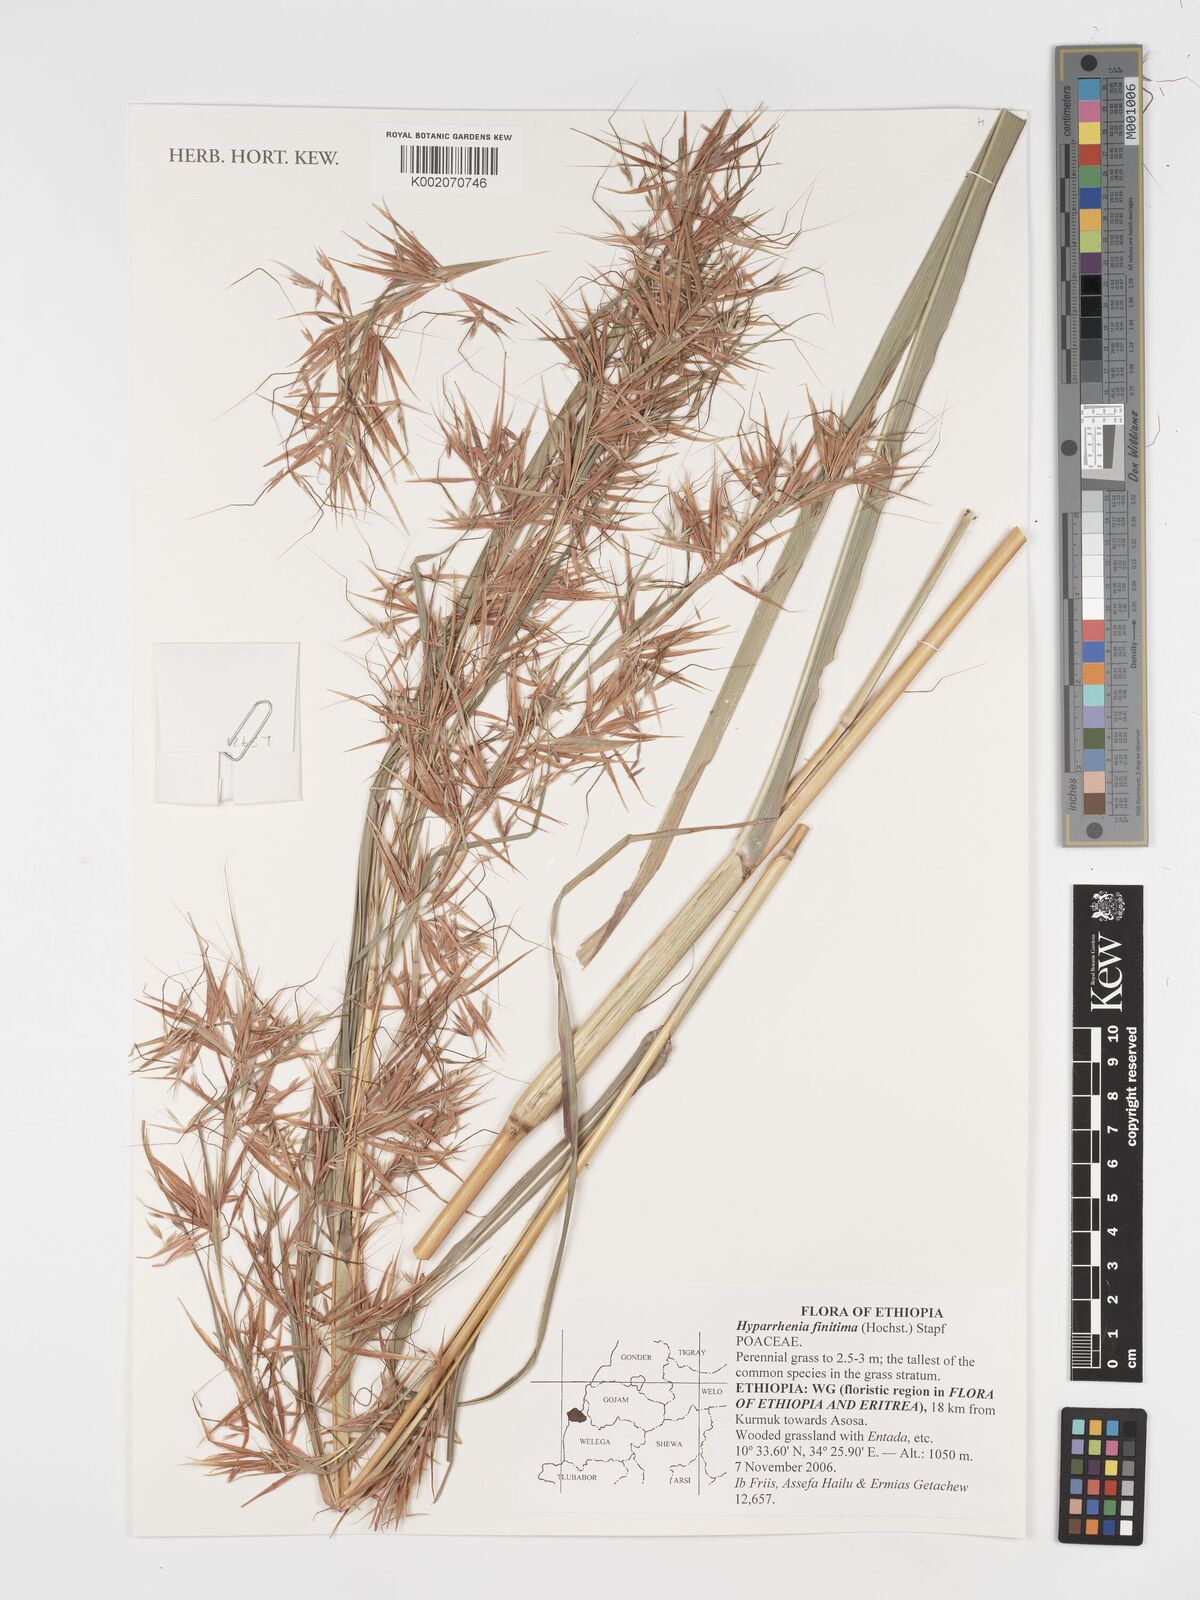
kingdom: Plantae
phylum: Tracheophyta
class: Liliopsida
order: Poales
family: Poaceae
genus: Hyparrhenia
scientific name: Hyparrhenia finitima
